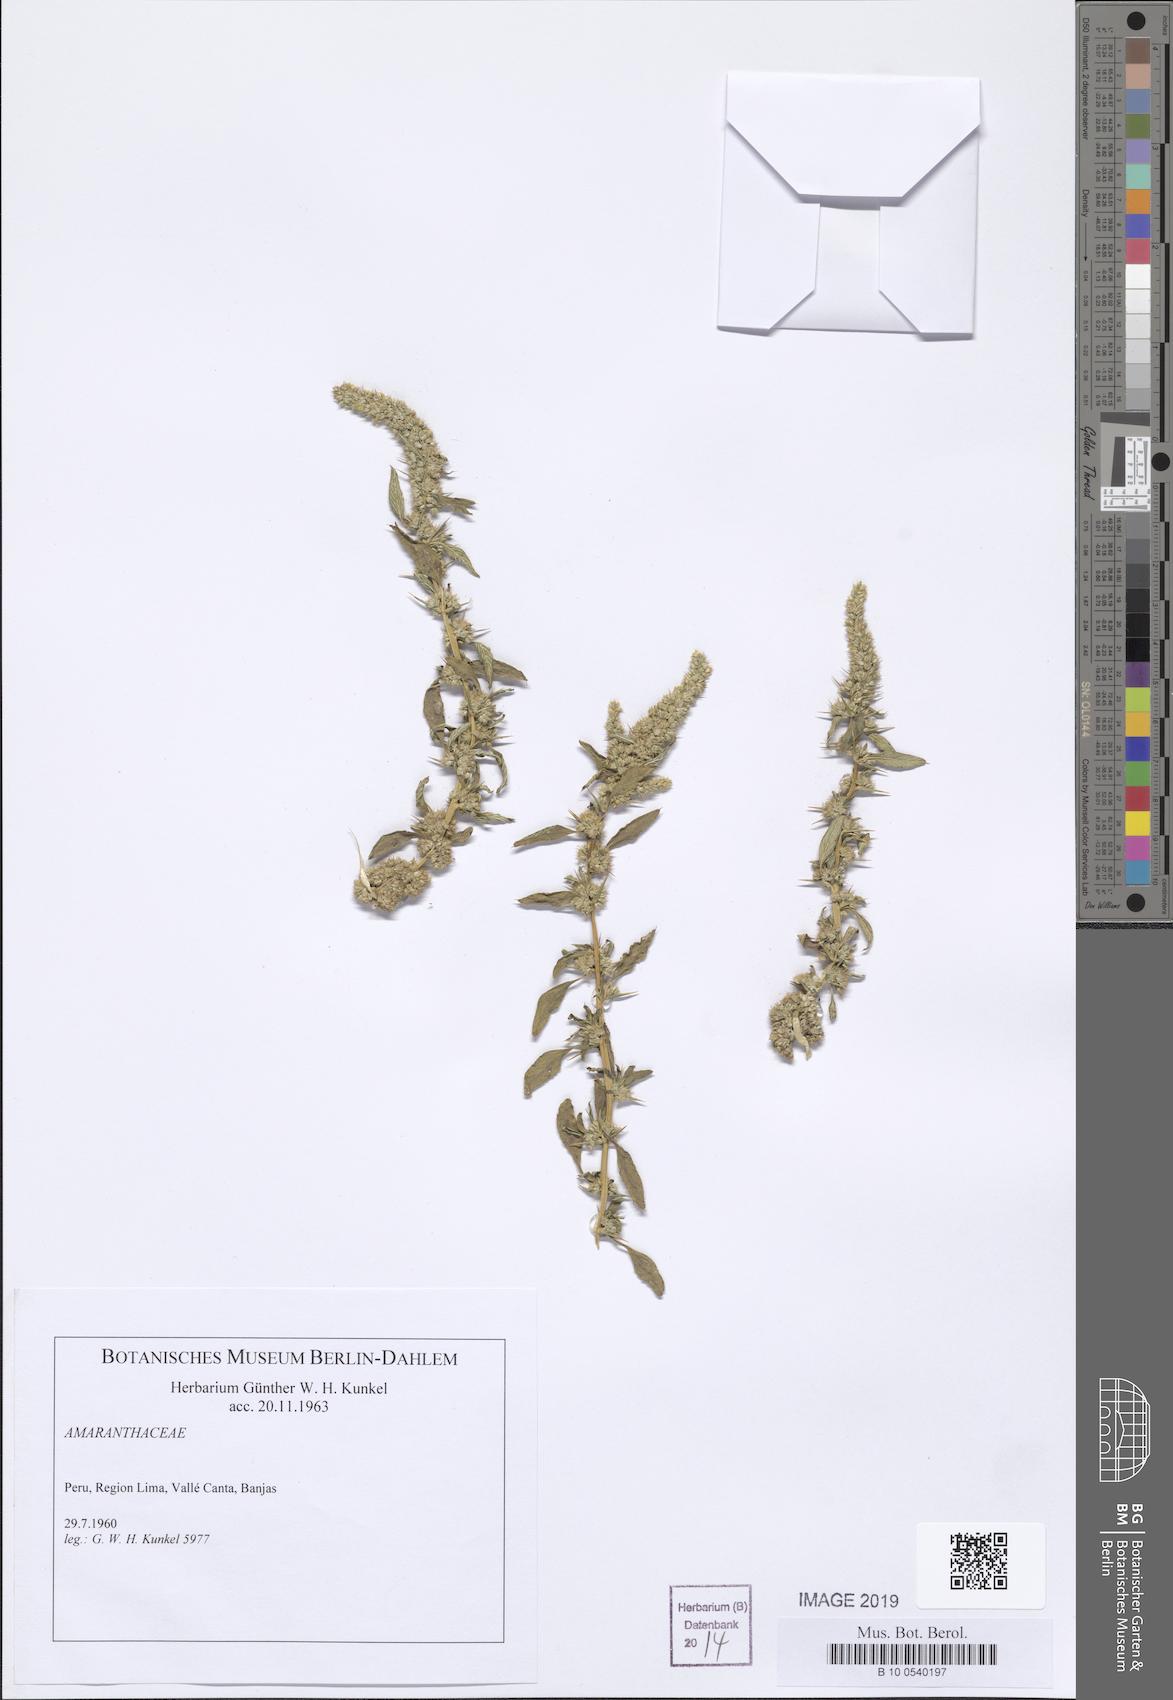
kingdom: Plantae
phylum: Tracheophyta
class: Magnoliopsida
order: Caryophyllales
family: Amaranthaceae
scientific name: Amaranthaceae
